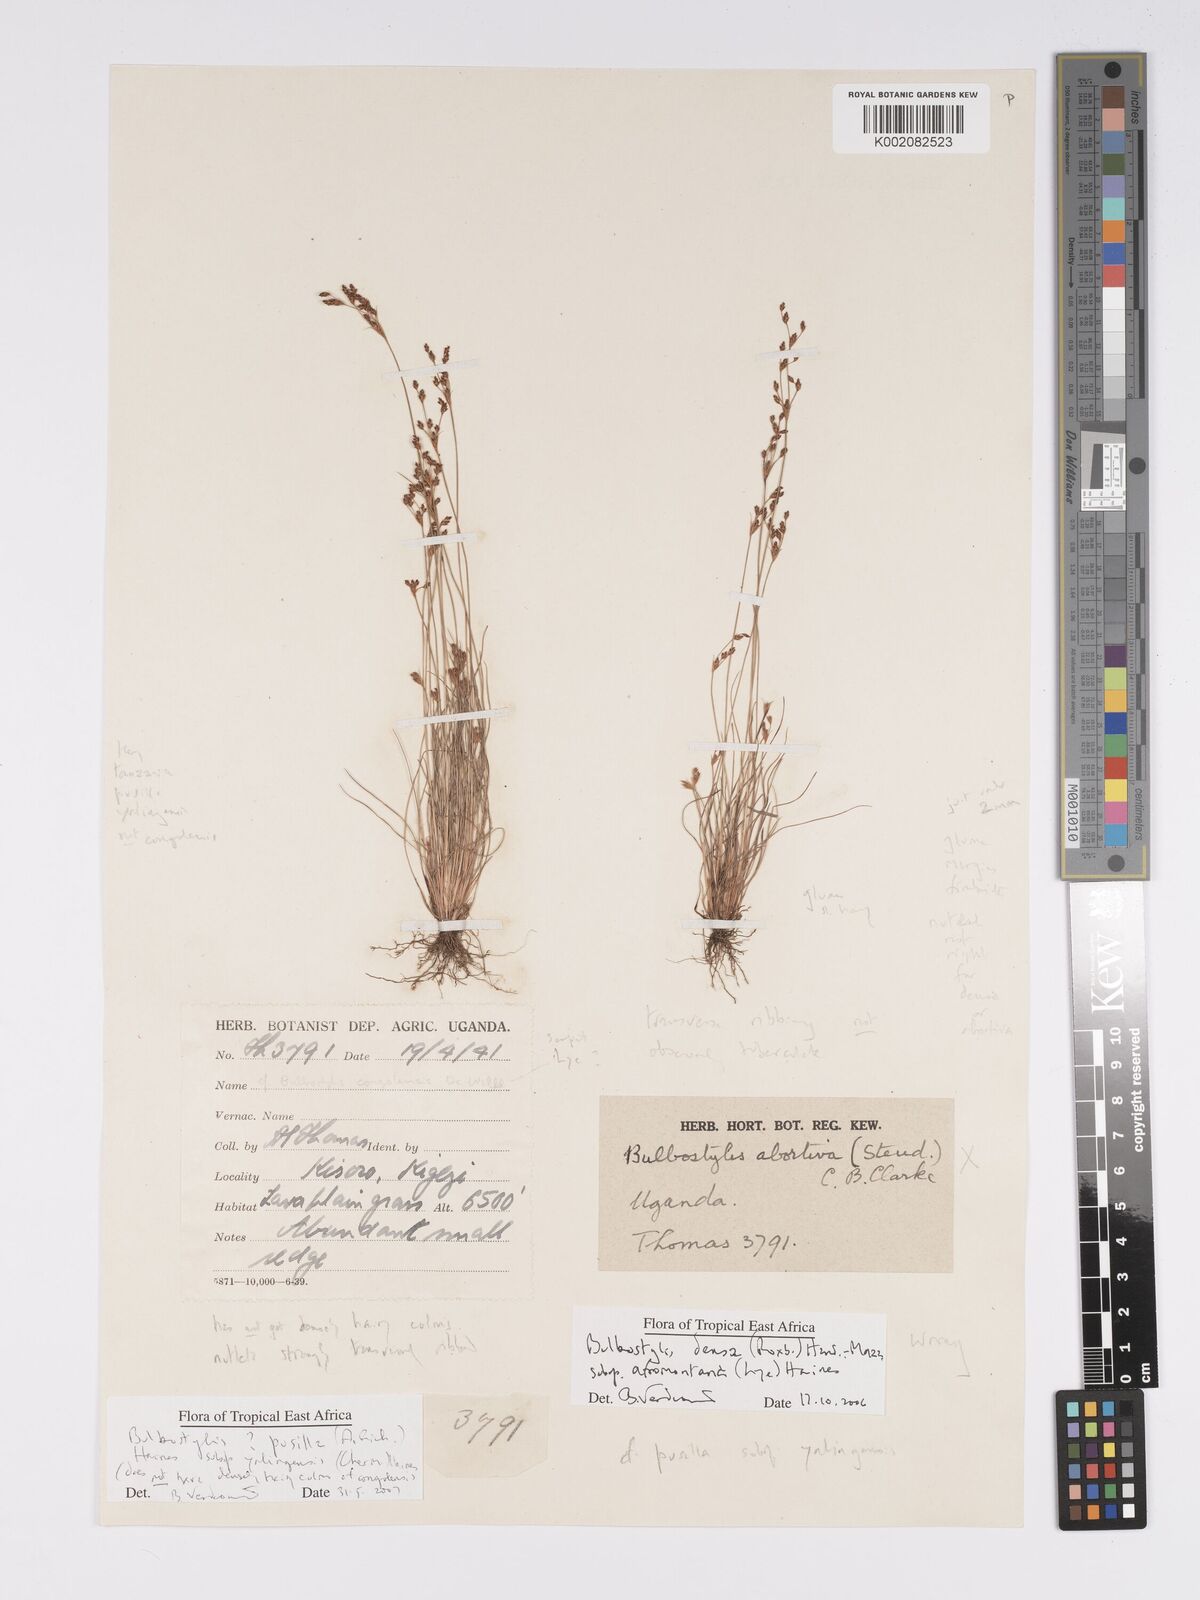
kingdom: Plantae
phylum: Tracheophyta
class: Liliopsida
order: Poales
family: Cyperaceae
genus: Bulbostylis
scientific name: Bulbostylis pusilla
